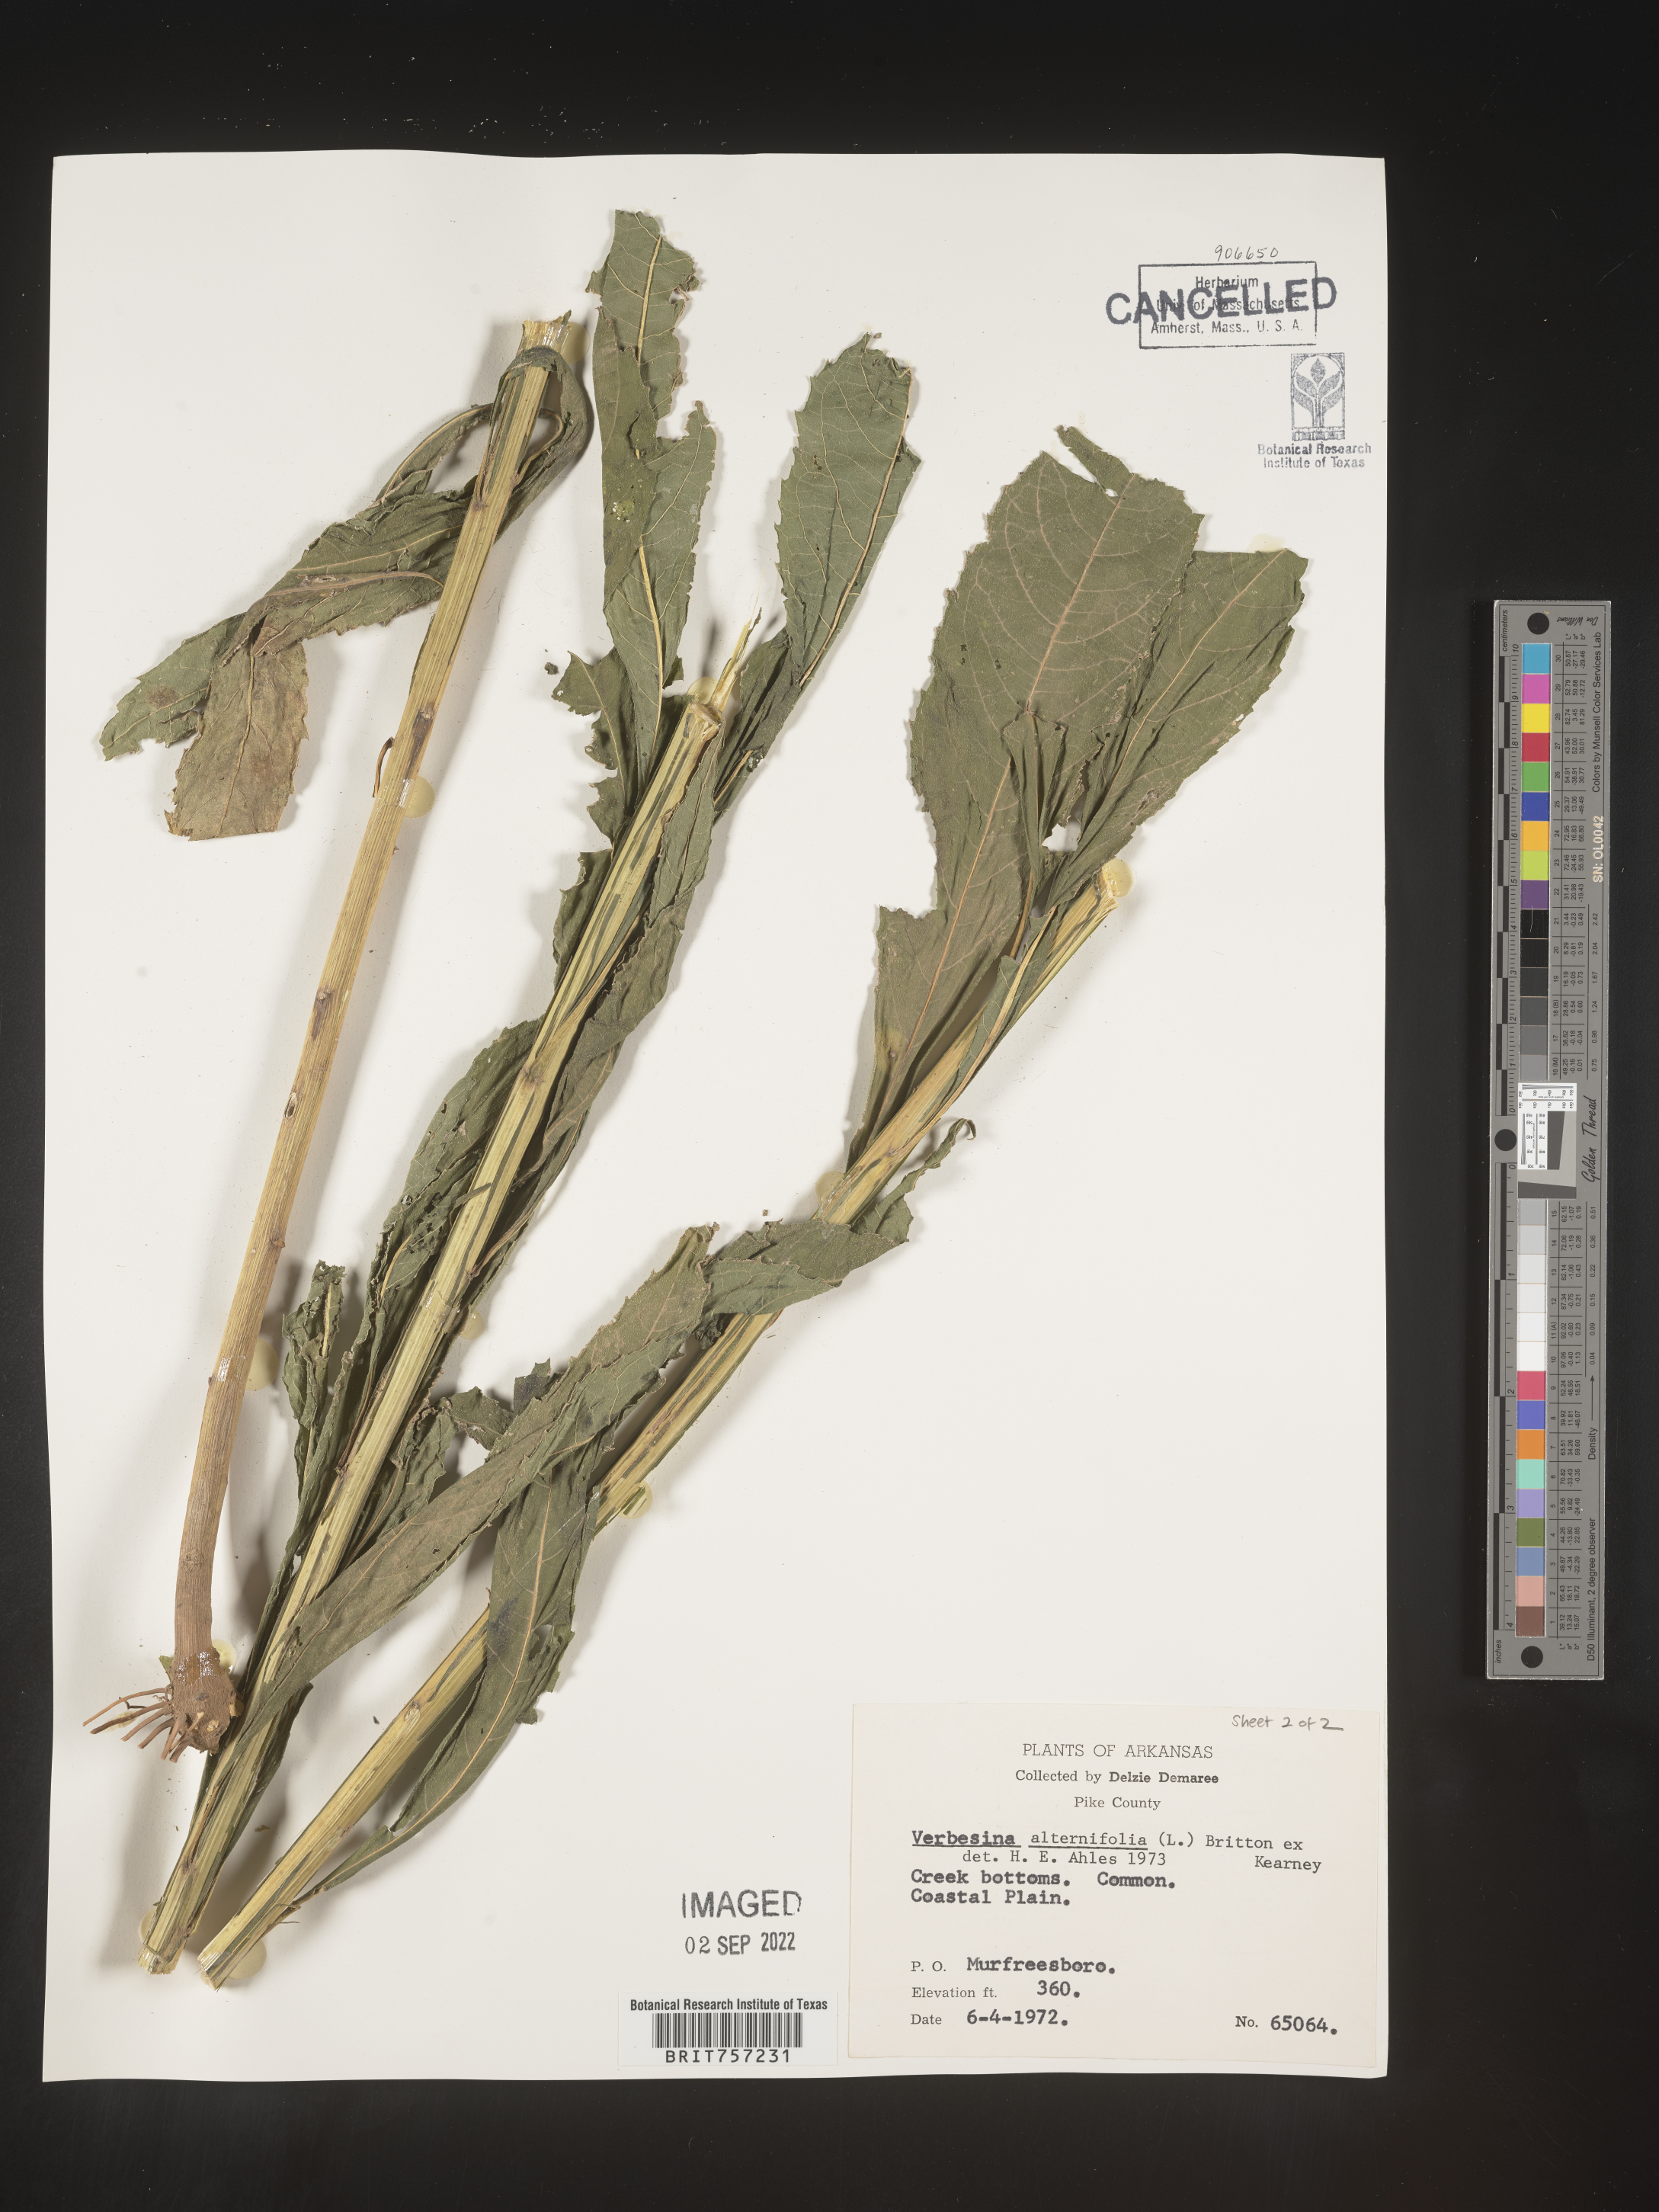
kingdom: Plantae
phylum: Tracheophyta
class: Magnoliopsida
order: Asterales
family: Asteraceae
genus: Verbesina
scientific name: Verbesina alternifolia
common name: Wingstem
